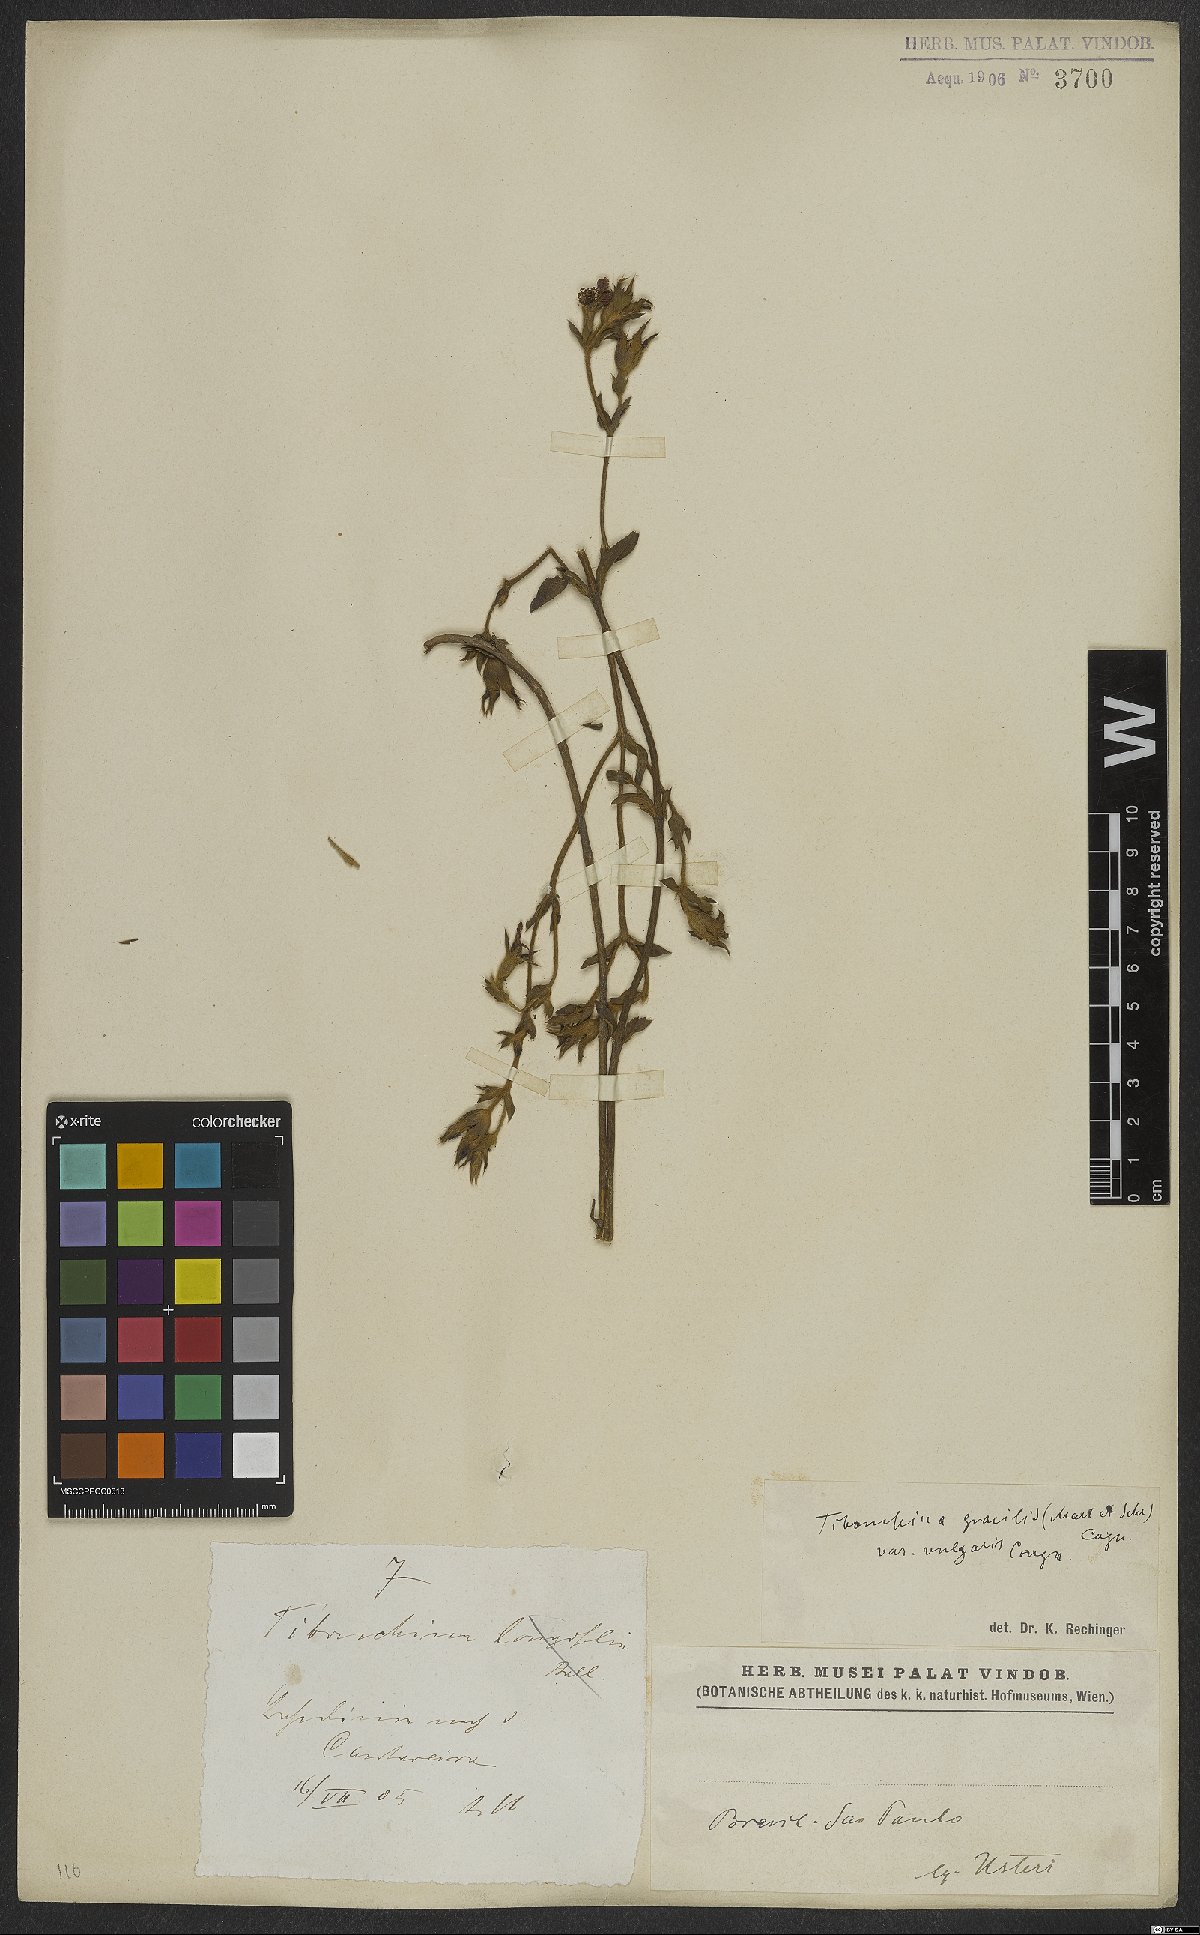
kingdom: Plantae
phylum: Tracheophyta
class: Magnoliopsida
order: Myrtales
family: Melastomataceae
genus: Chaetogastra
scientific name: Chaetogastra gracilis
